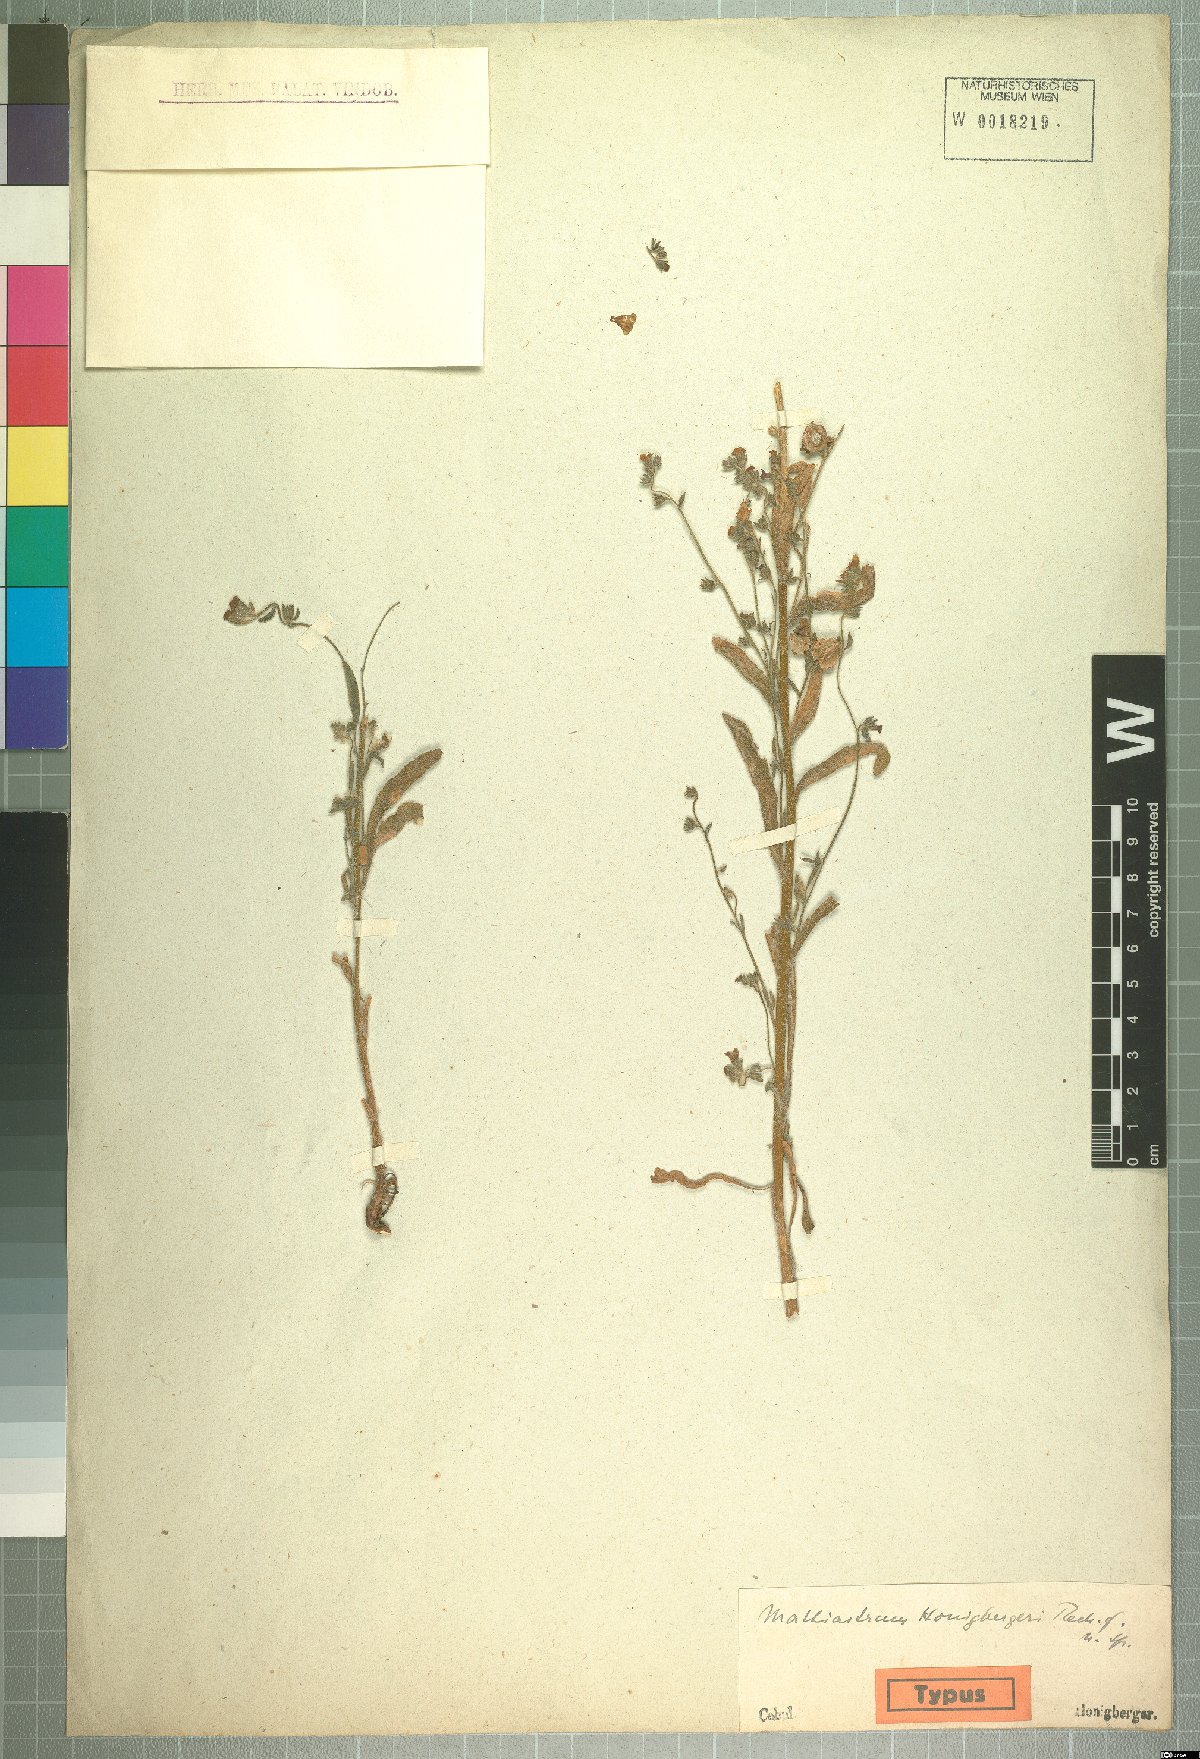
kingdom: Plantae
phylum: Tracheophyta
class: Magnoliopsida
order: Boraginales
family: Boraginaceae
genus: Paracaryum
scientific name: Paracaryum asperum
